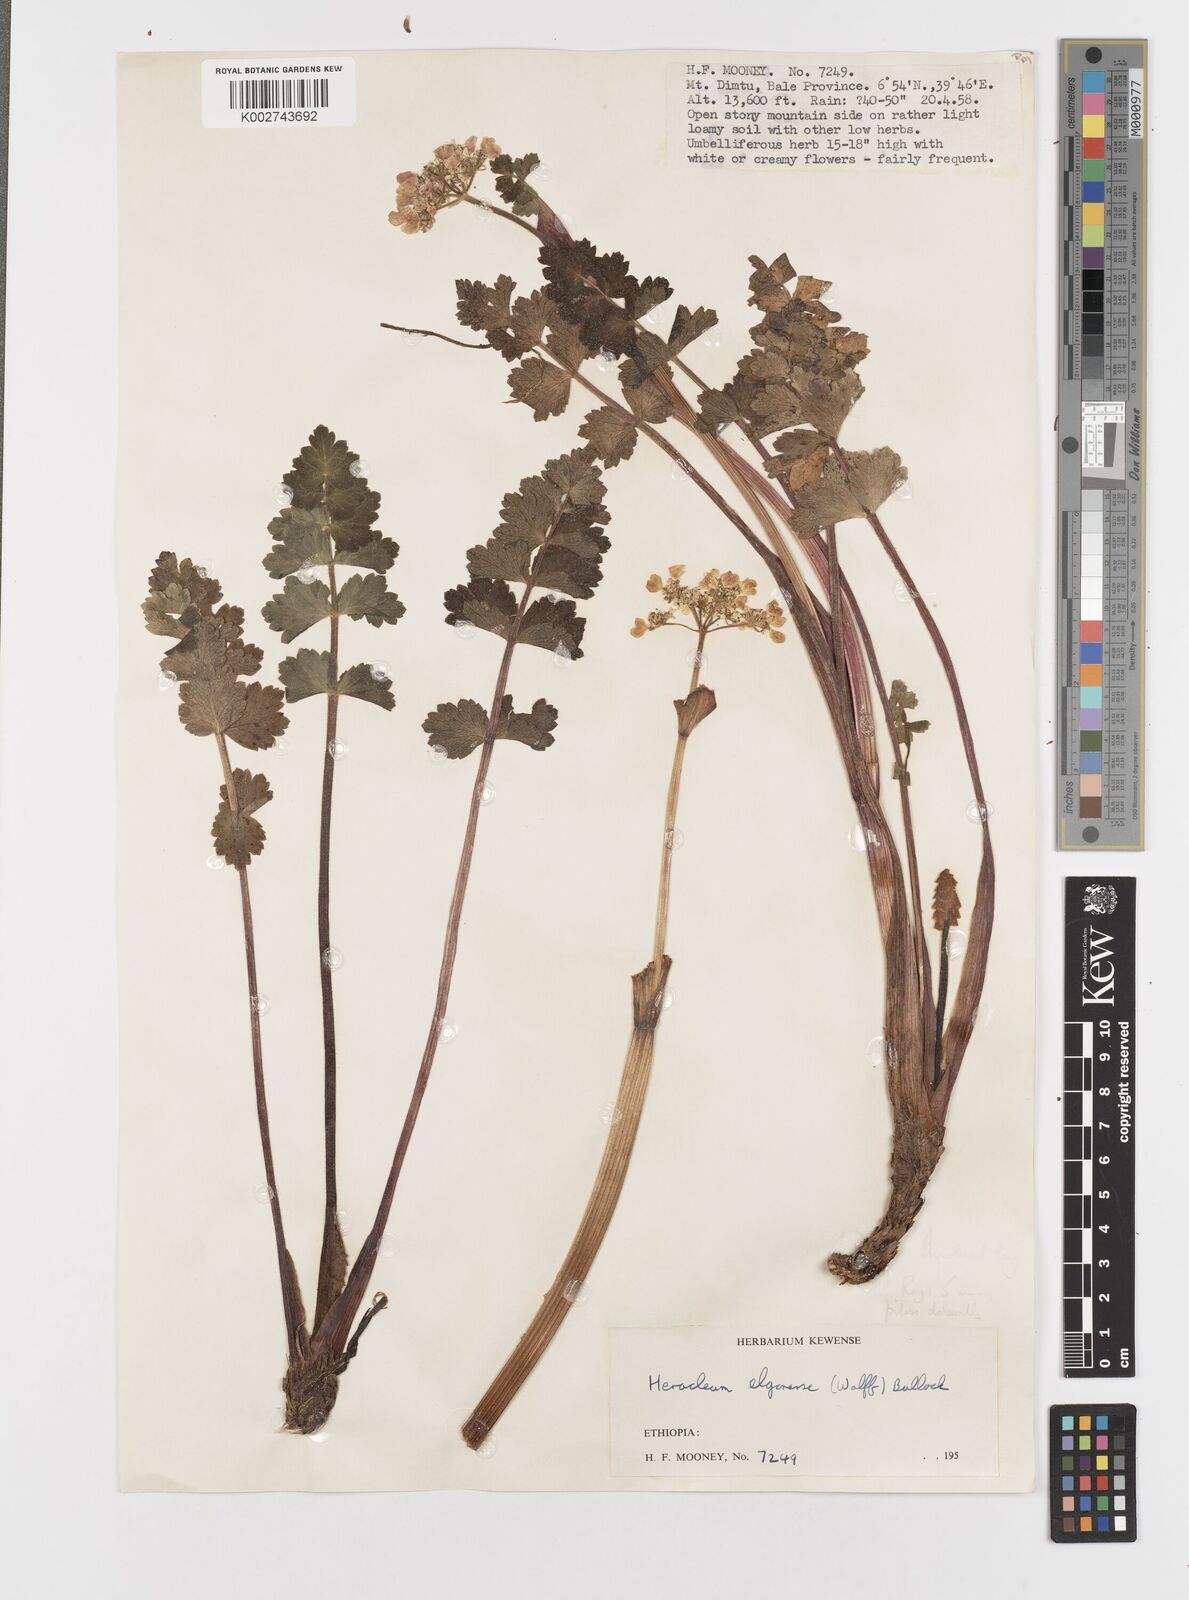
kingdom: Plantae
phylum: Tracheophyta
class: Magnoliopsida
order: Apiales
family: Apiaceae
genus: Heracleum
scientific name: Heracleum abyssinicum
